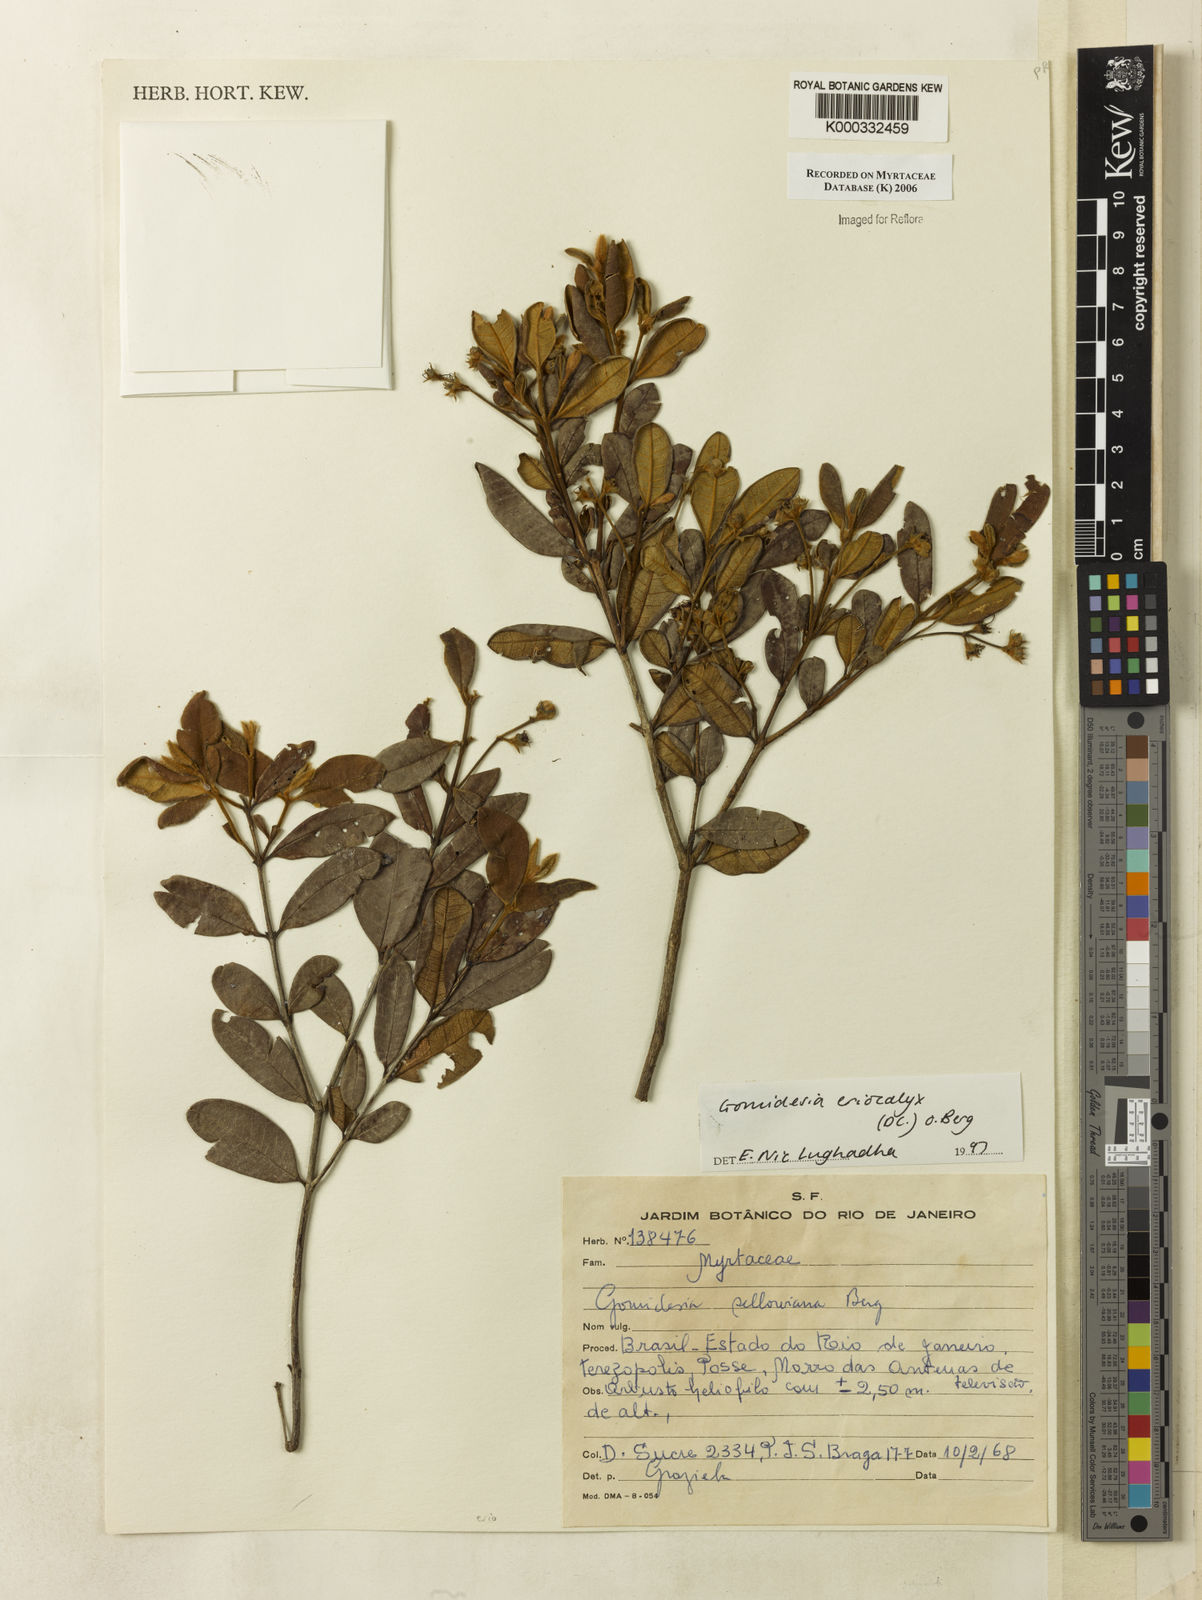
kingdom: Plantae
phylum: Tracheophyta
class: Magnoliopsida
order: Myrtales
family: Myrtaceae
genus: Myrcia
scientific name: Myrcia eriocalyx
